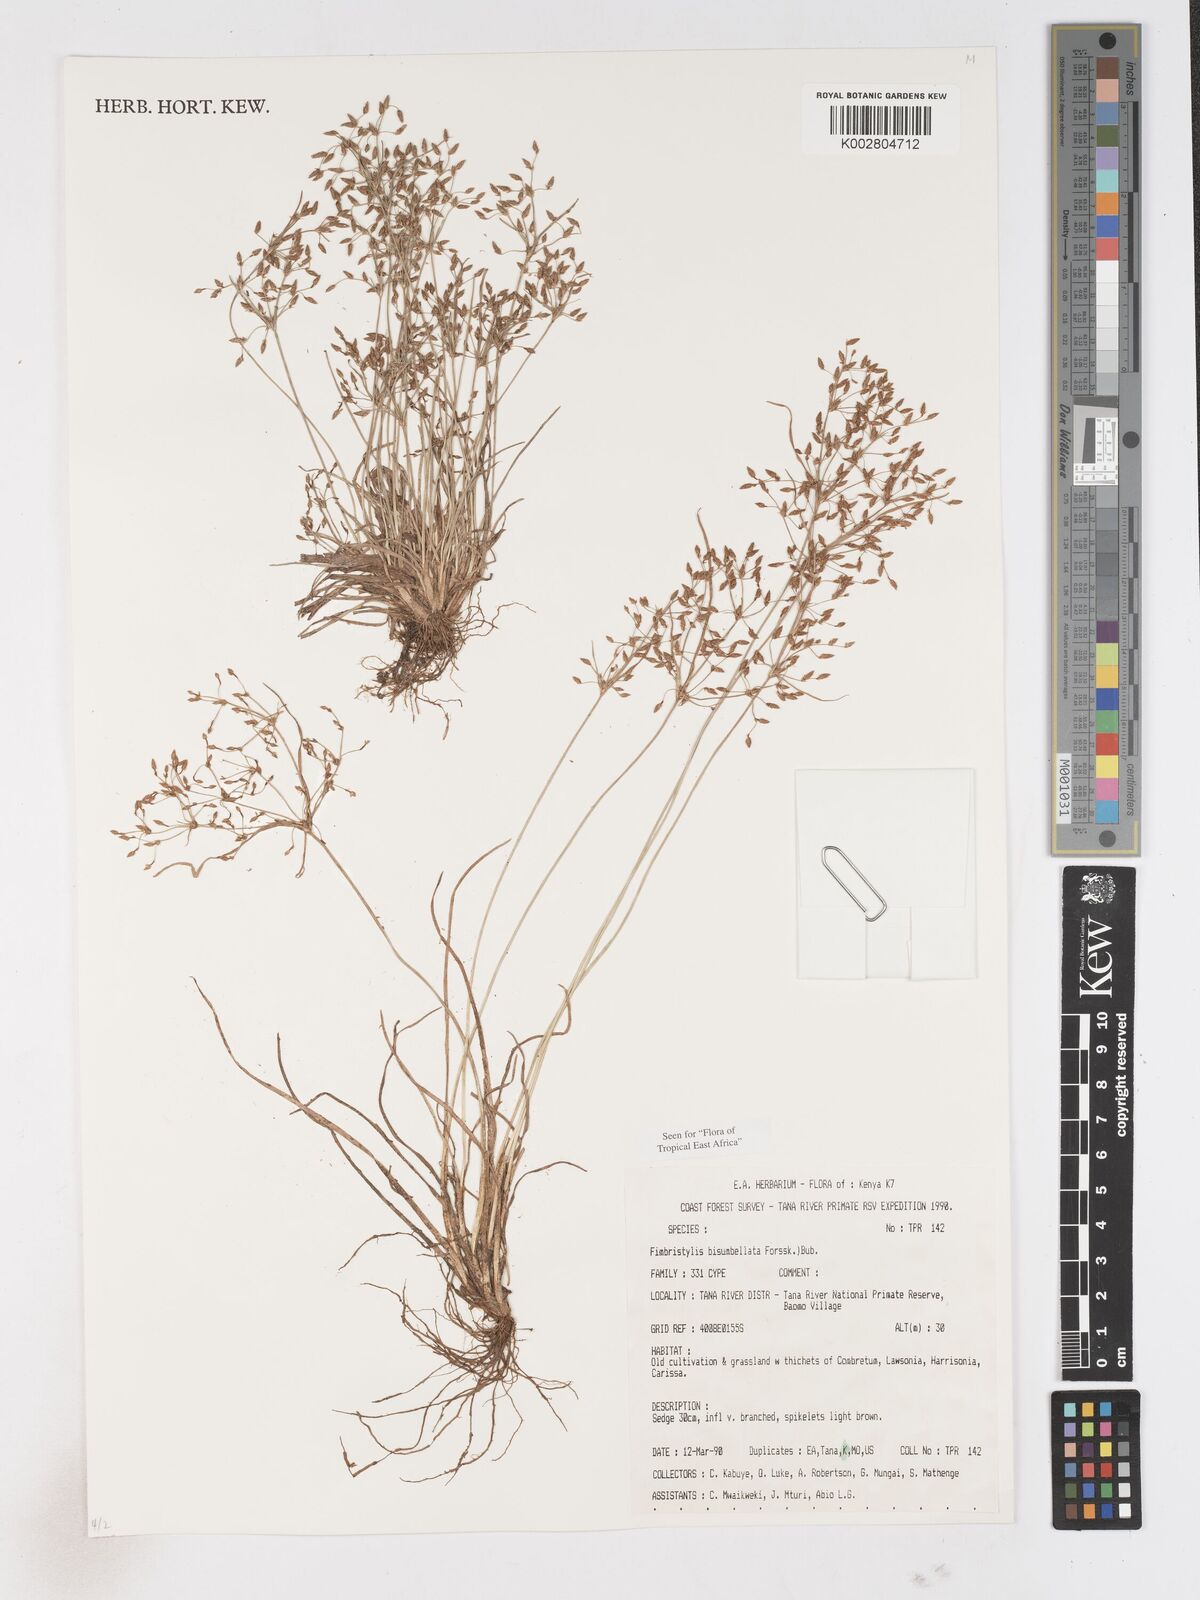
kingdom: Plantae
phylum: Tracheophyta
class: Liliopsida
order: Poales
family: Cyperaceae
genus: Fimbristylis
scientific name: Fimbristylis bisumbellata
